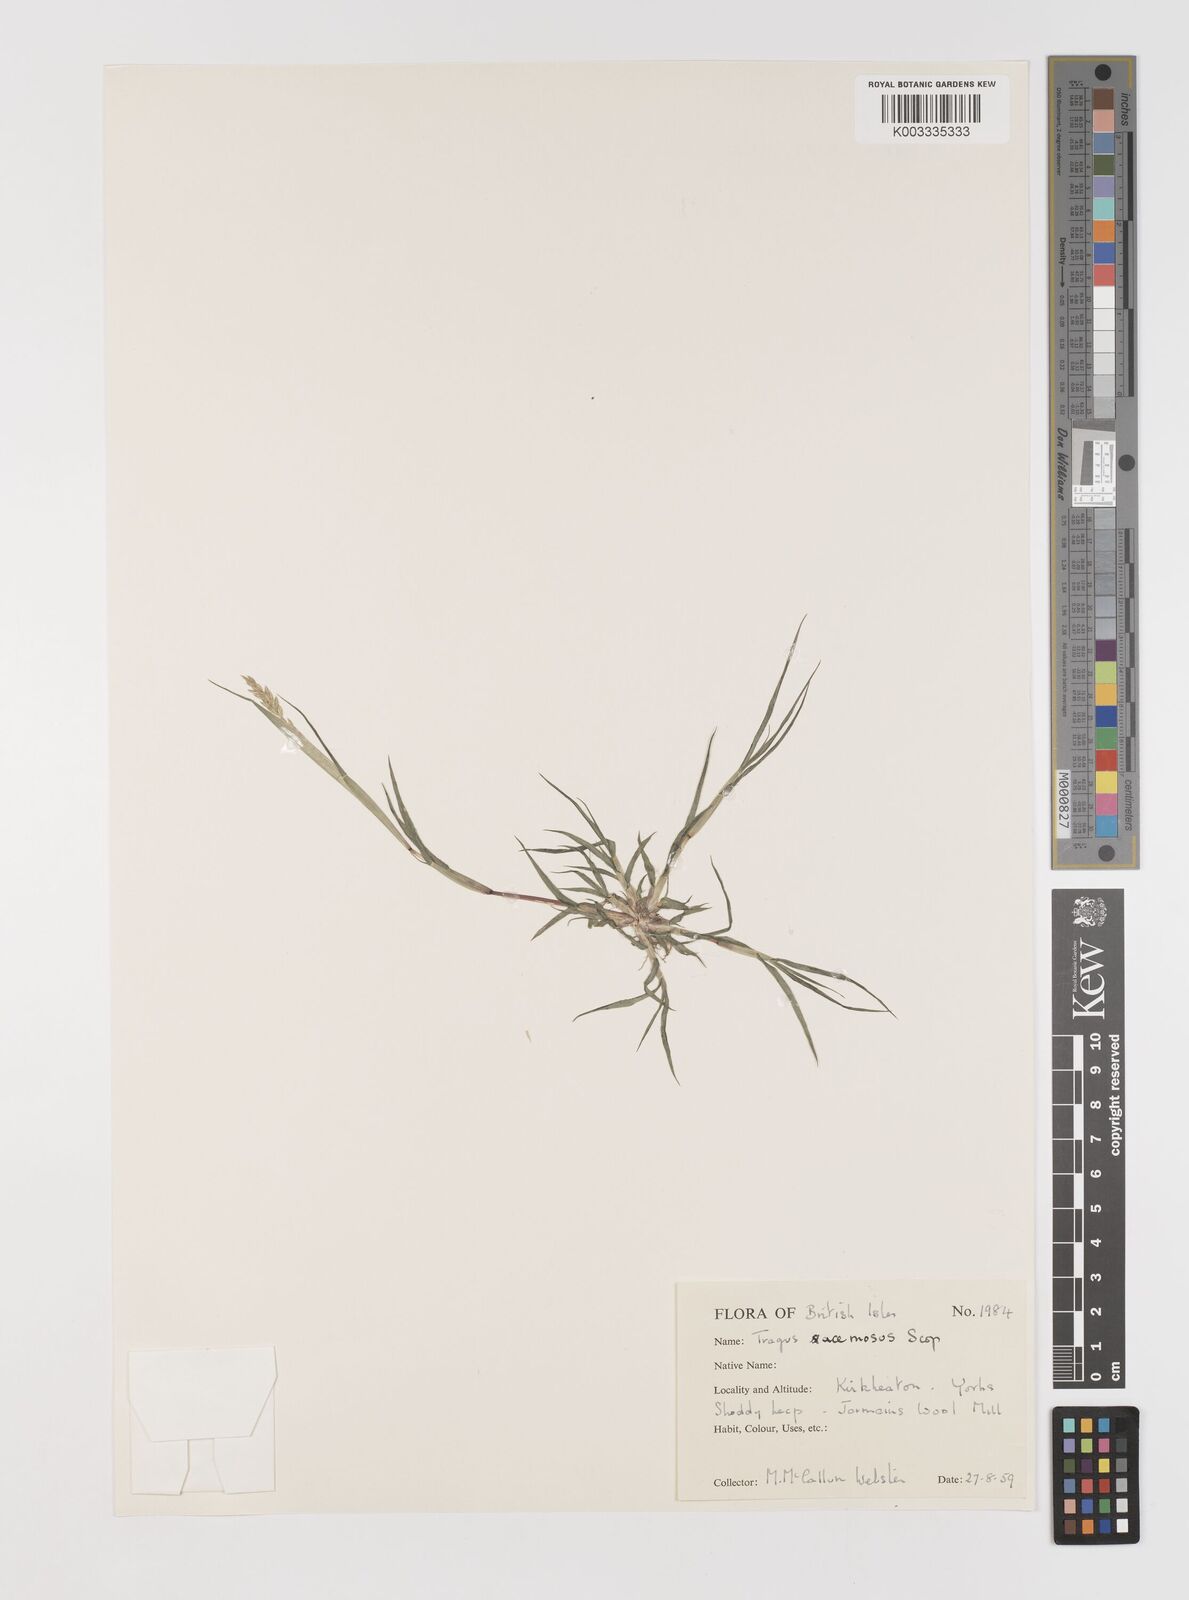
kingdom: Plantae
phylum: Tracheophyta
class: Liliopsida
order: Poales
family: Poaceae
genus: Tragus
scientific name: Tragus racemosus
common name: European bur-grass
